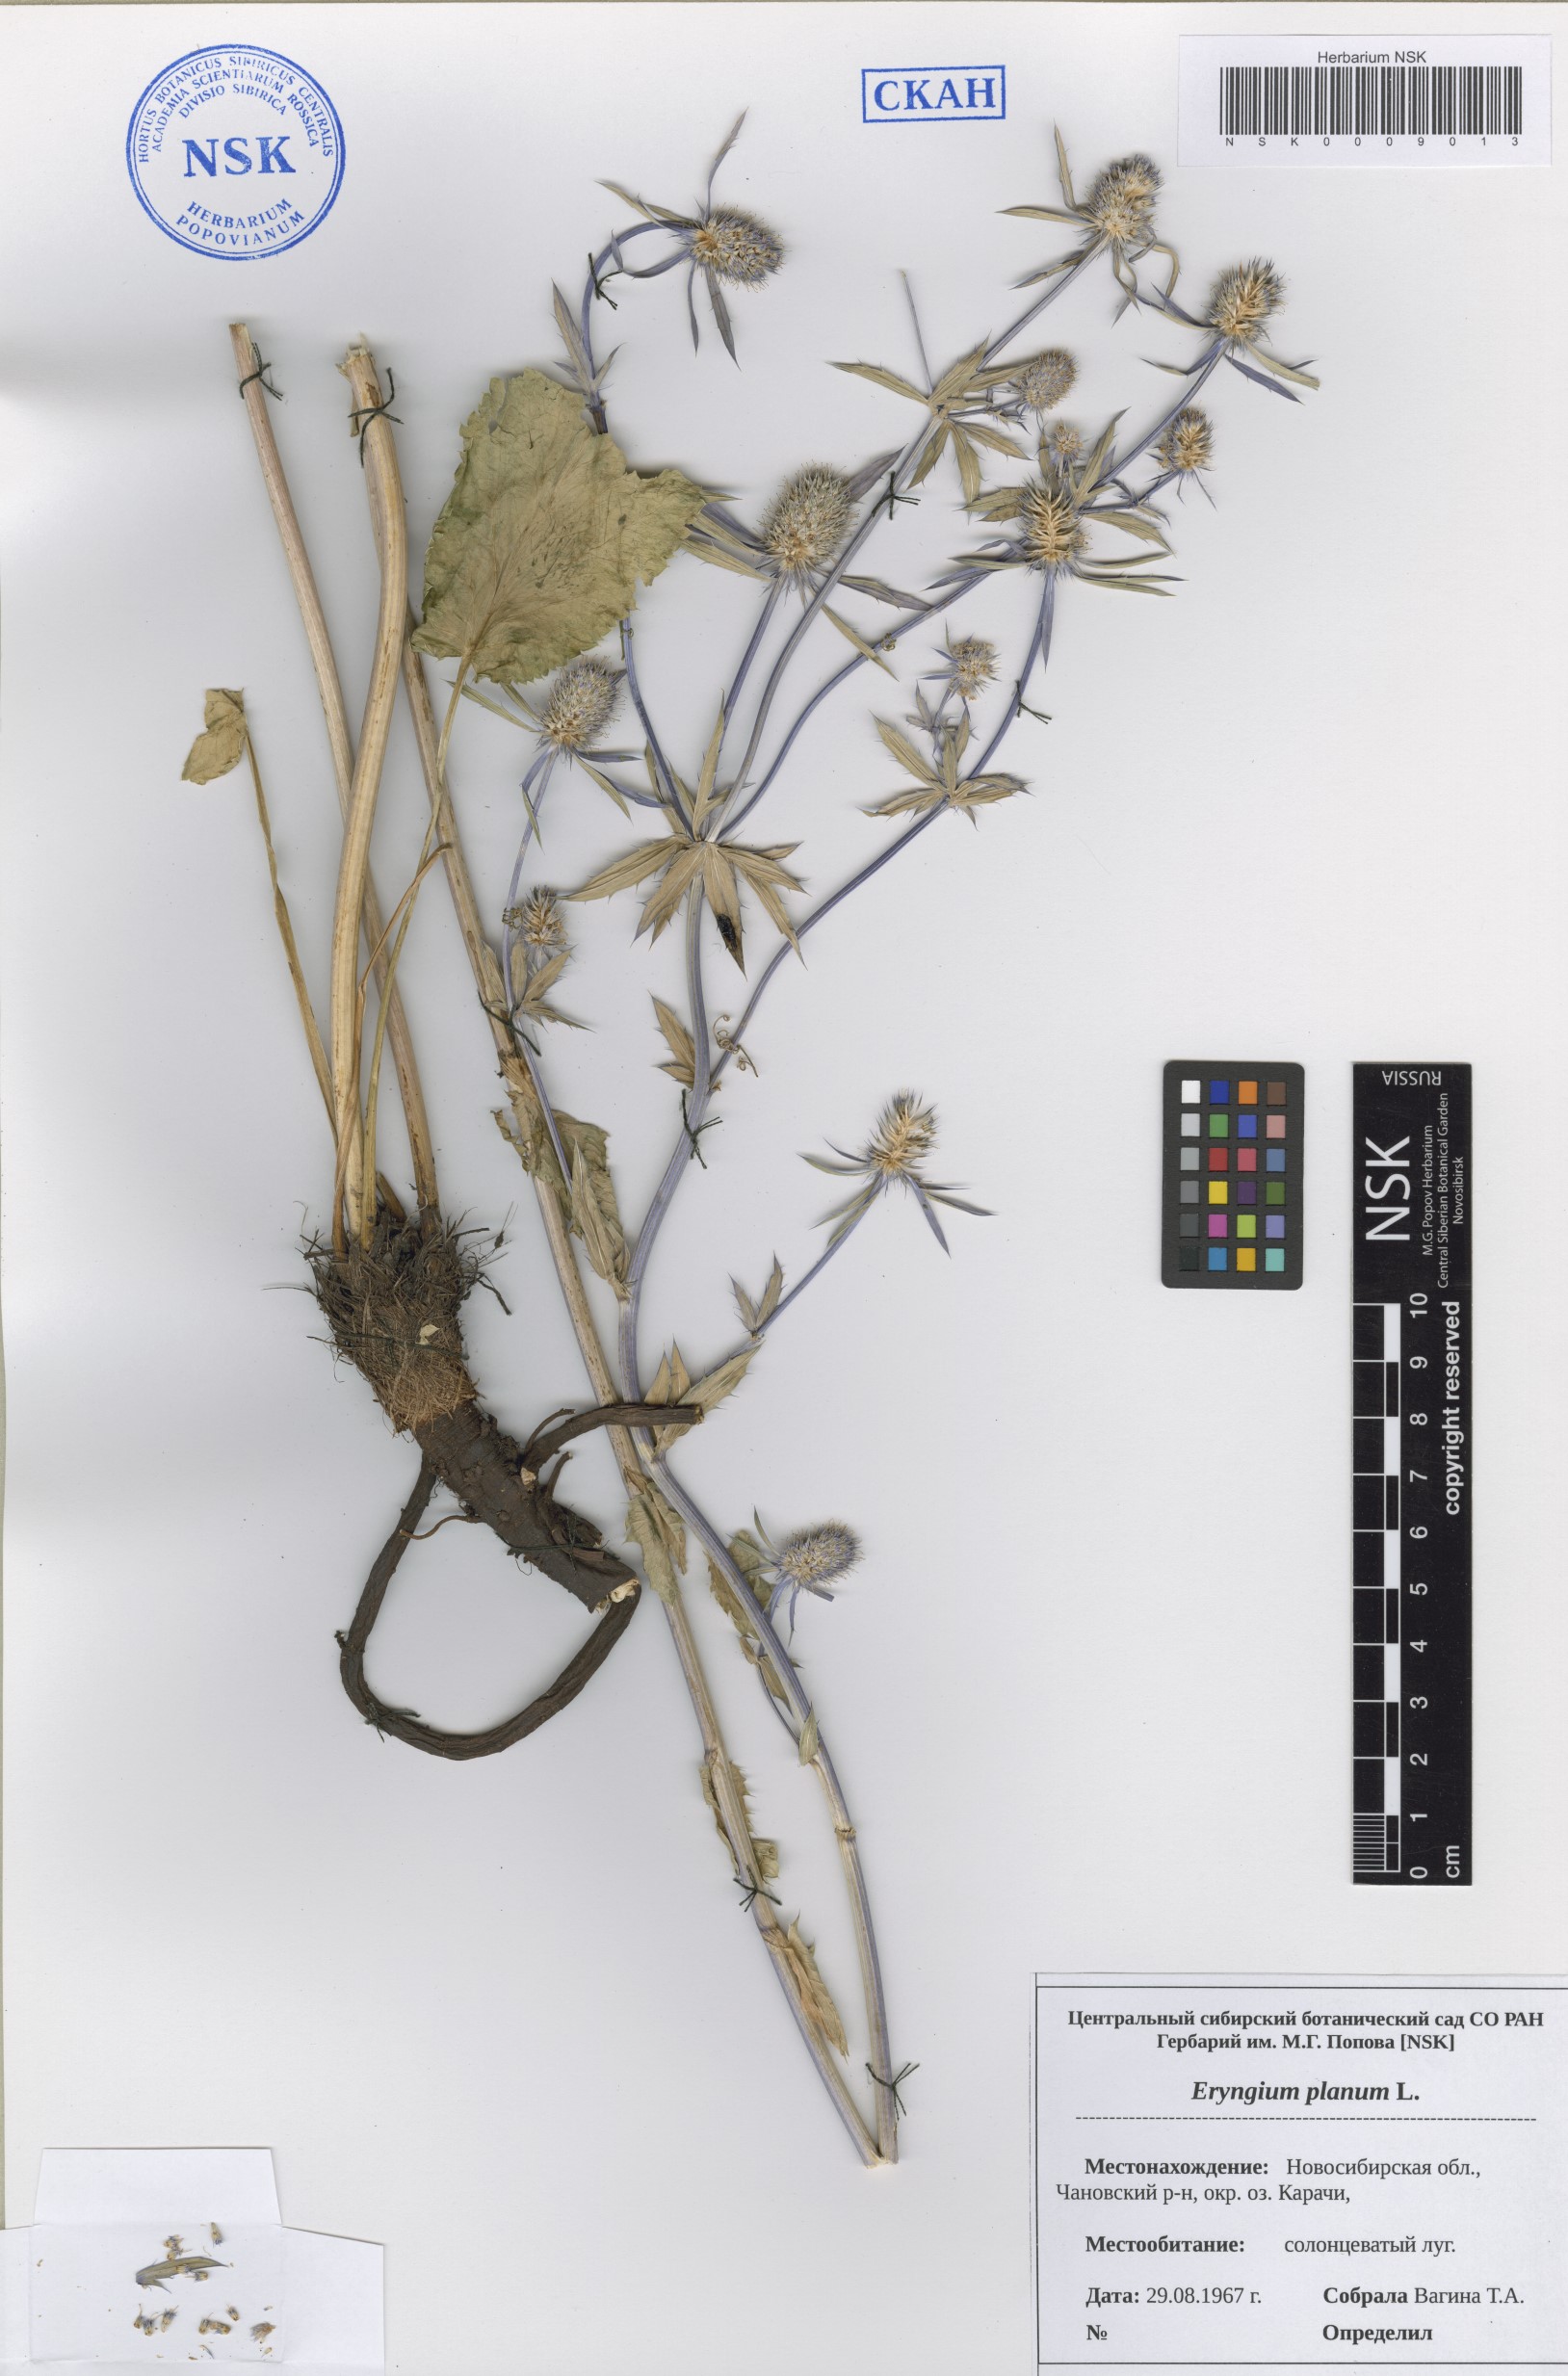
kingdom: Plantae
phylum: Tracheophyta
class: Magnoliopsida
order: Apiales
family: Apiaceae
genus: Eryngium
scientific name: Eryngium planum
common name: Blue eryngo
